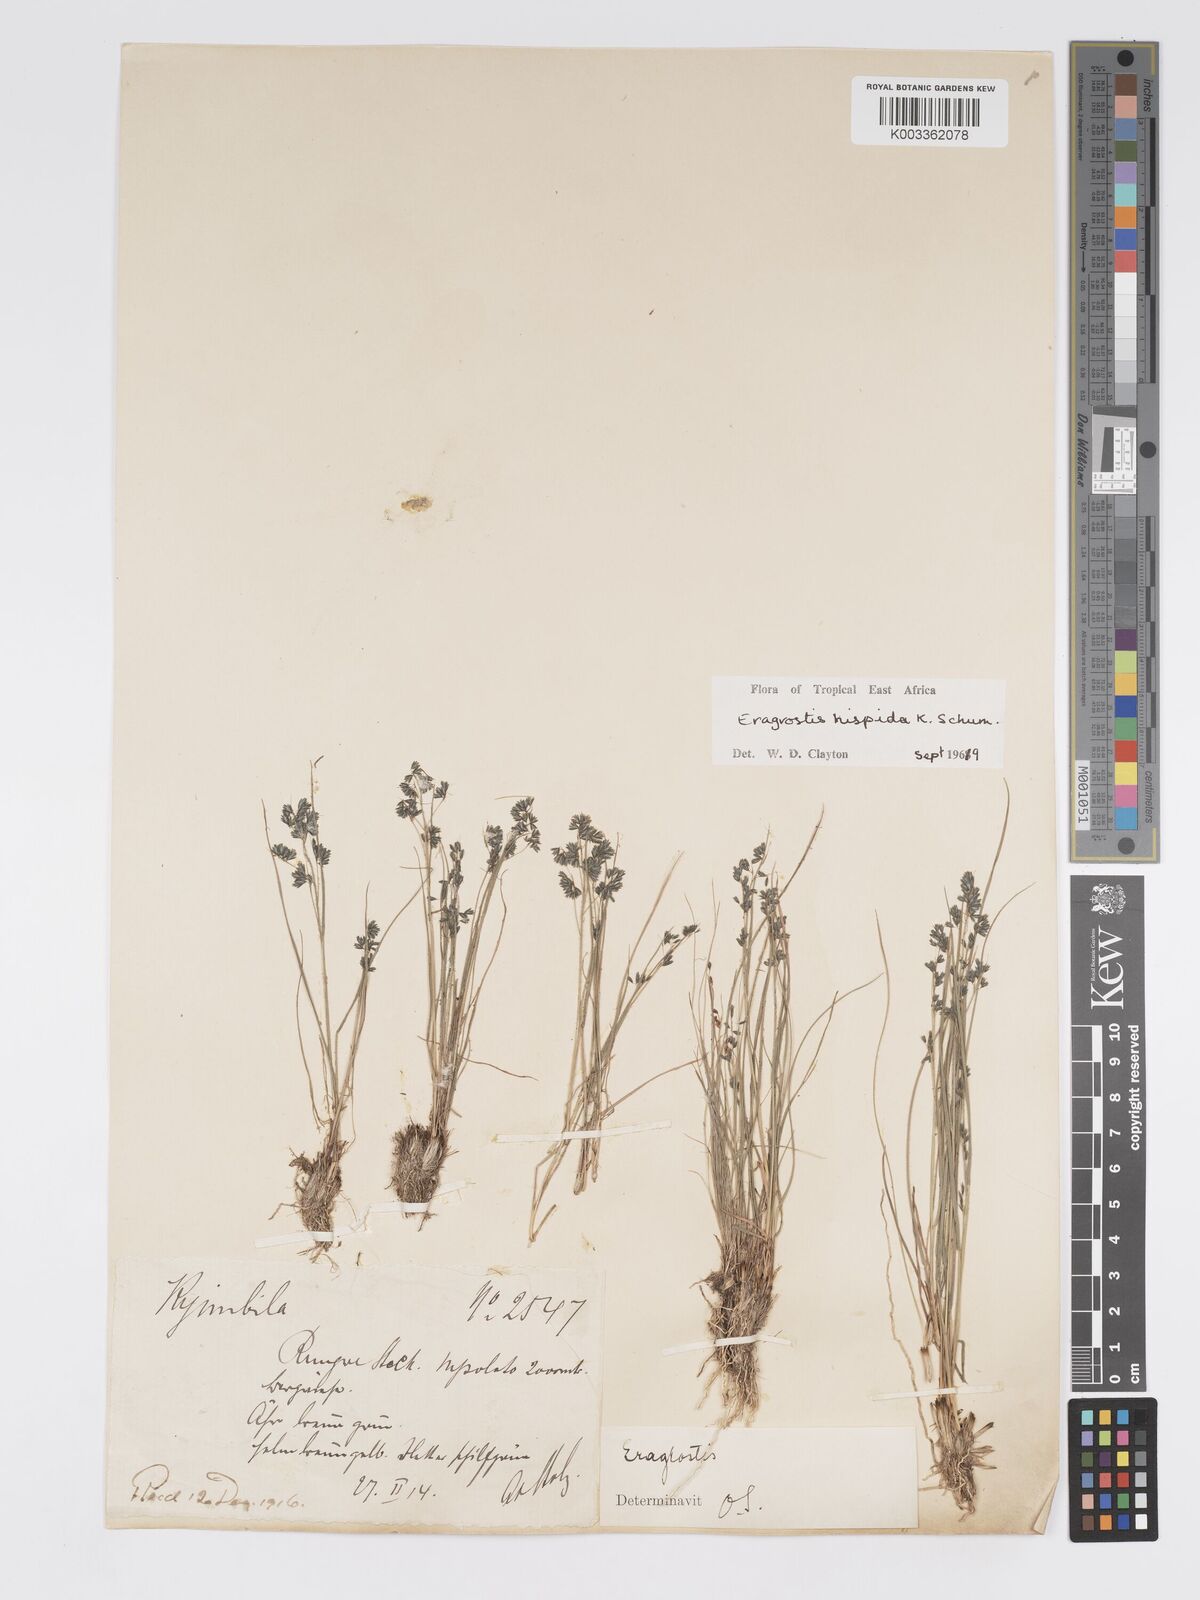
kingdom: Plantae
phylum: Tracheophyta
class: Liliopsida
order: Poales
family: Poaceae
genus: Eragrostis
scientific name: Eragrostis hispida
